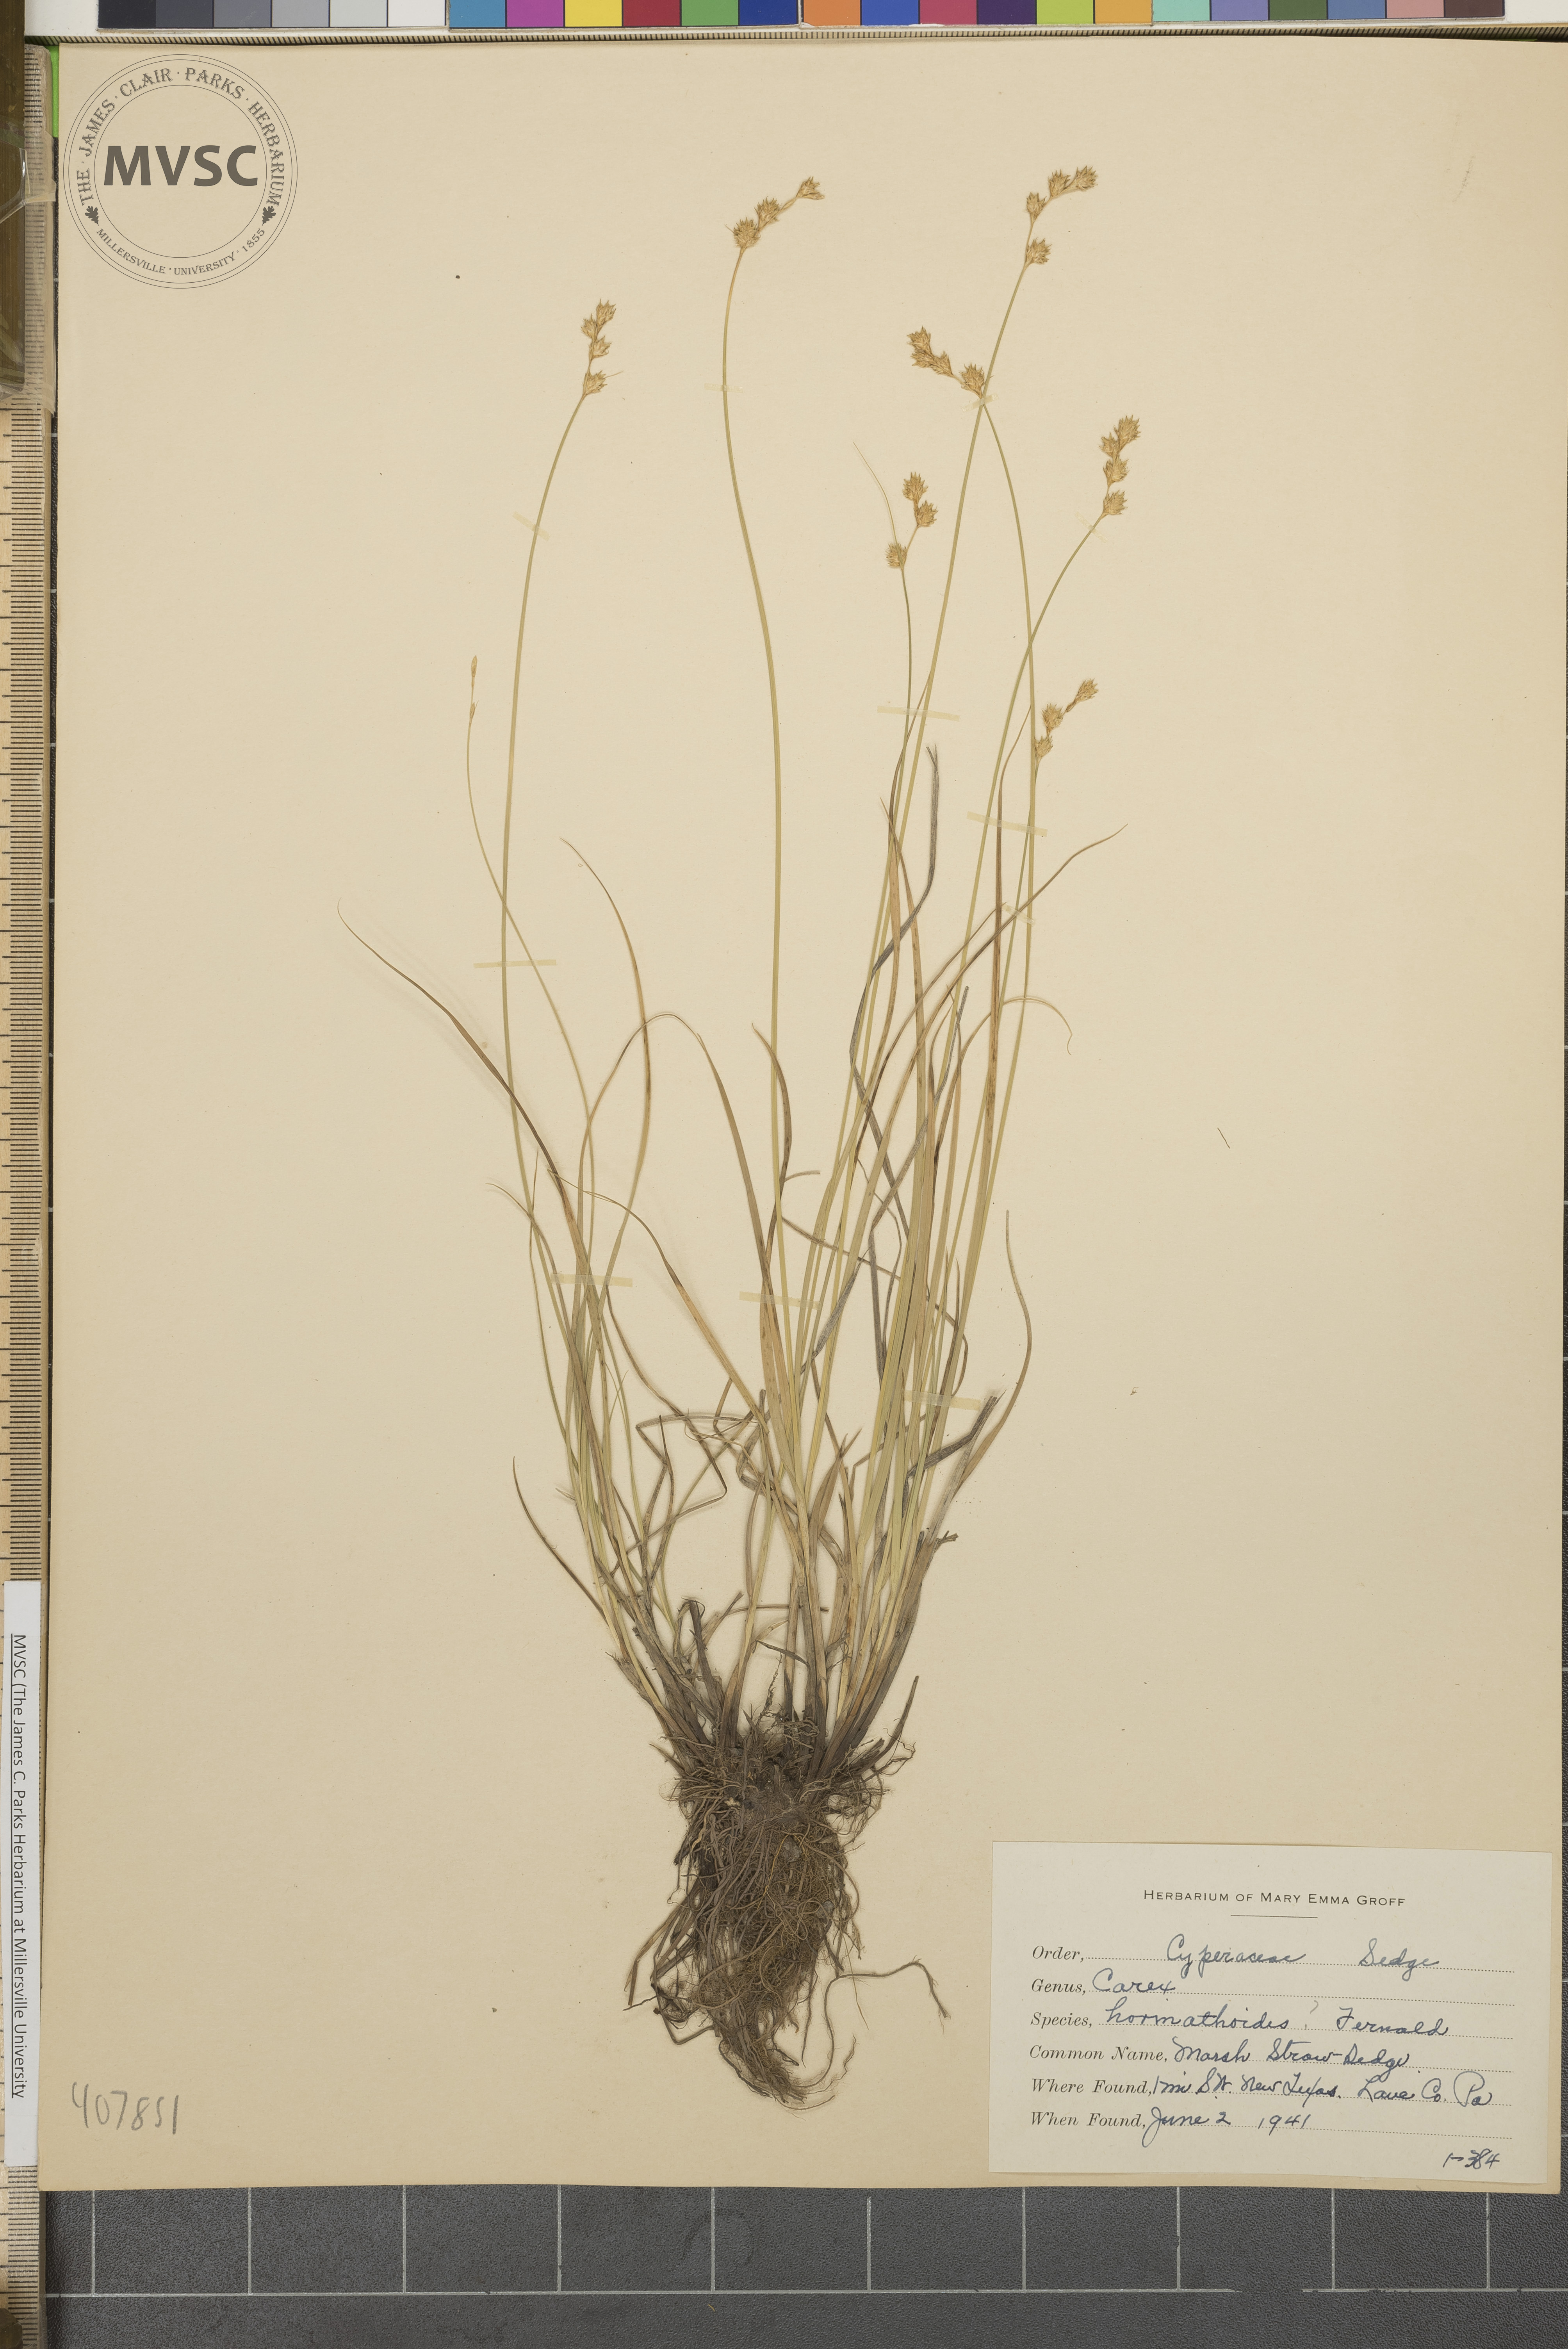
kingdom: Plantae
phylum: Tracheophyta
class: Liliopsida
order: Poales
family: Cyperaceae
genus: Carex
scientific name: Carex festucacea
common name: Fescue oval sedge
